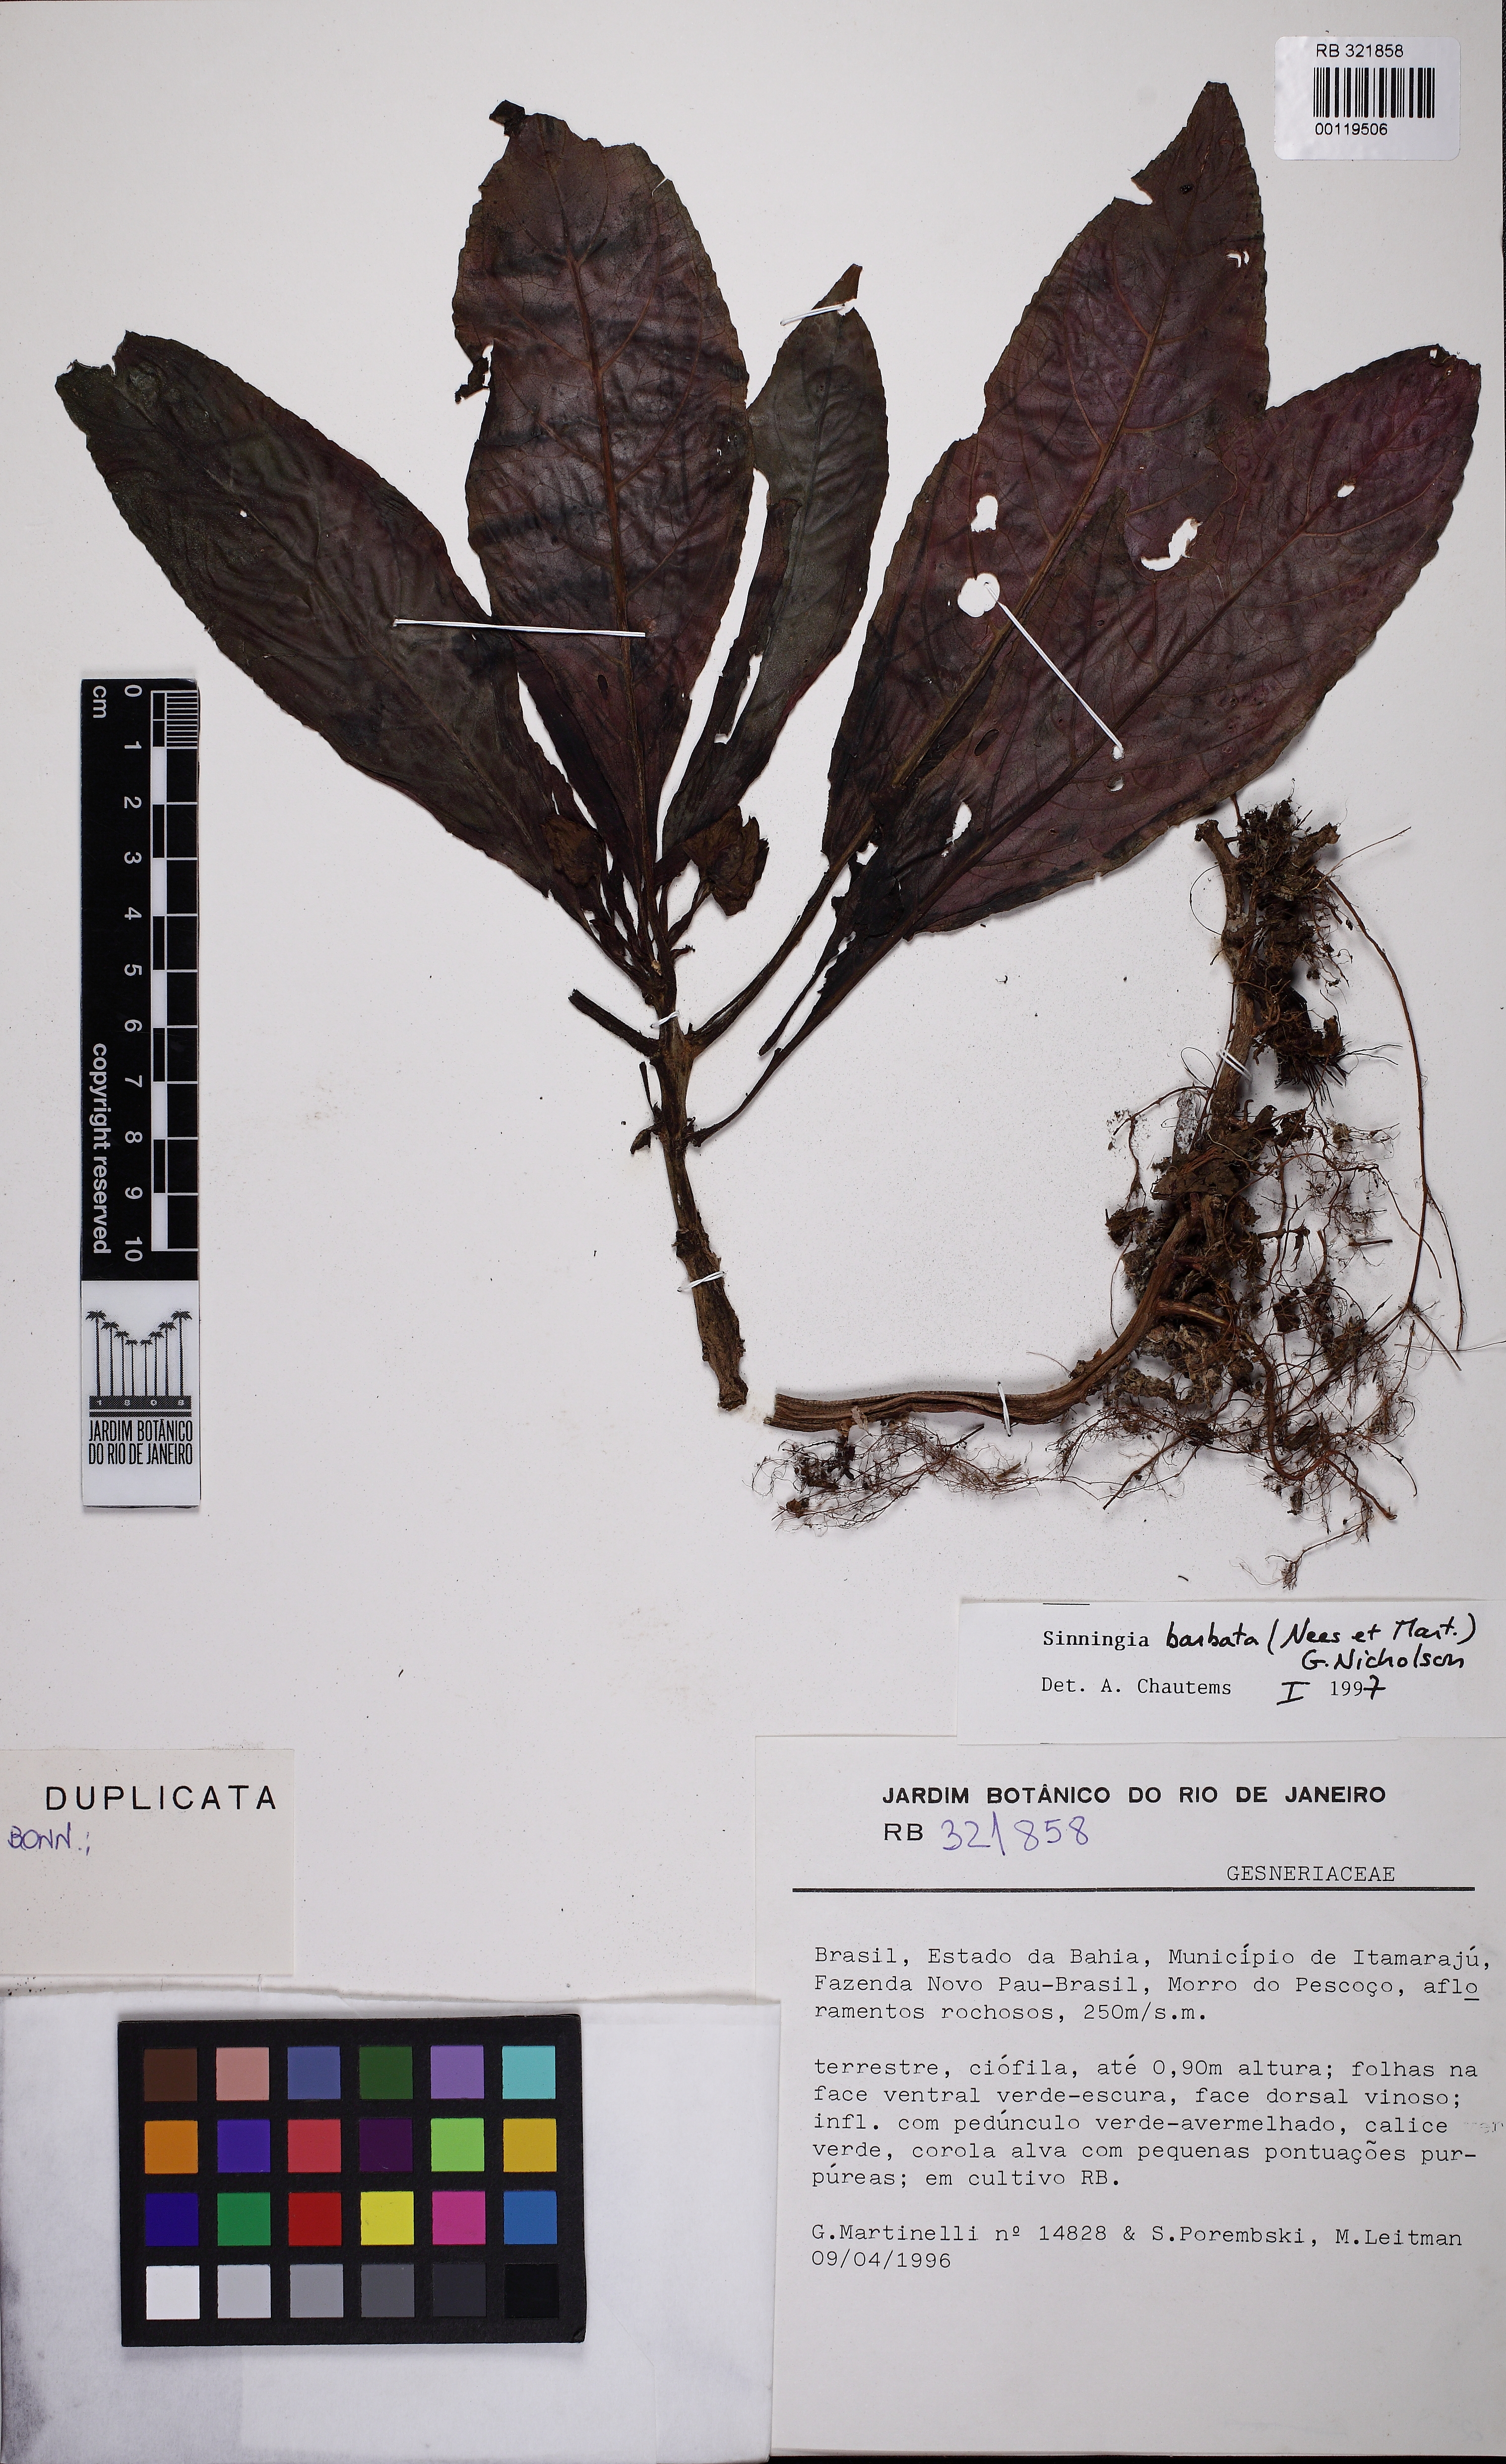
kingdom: Plantae
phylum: Tracheophyta
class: Magnoliopsida
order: Lamiales
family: Gesneriaceae
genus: Sinningia
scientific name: Sinningia barbata
